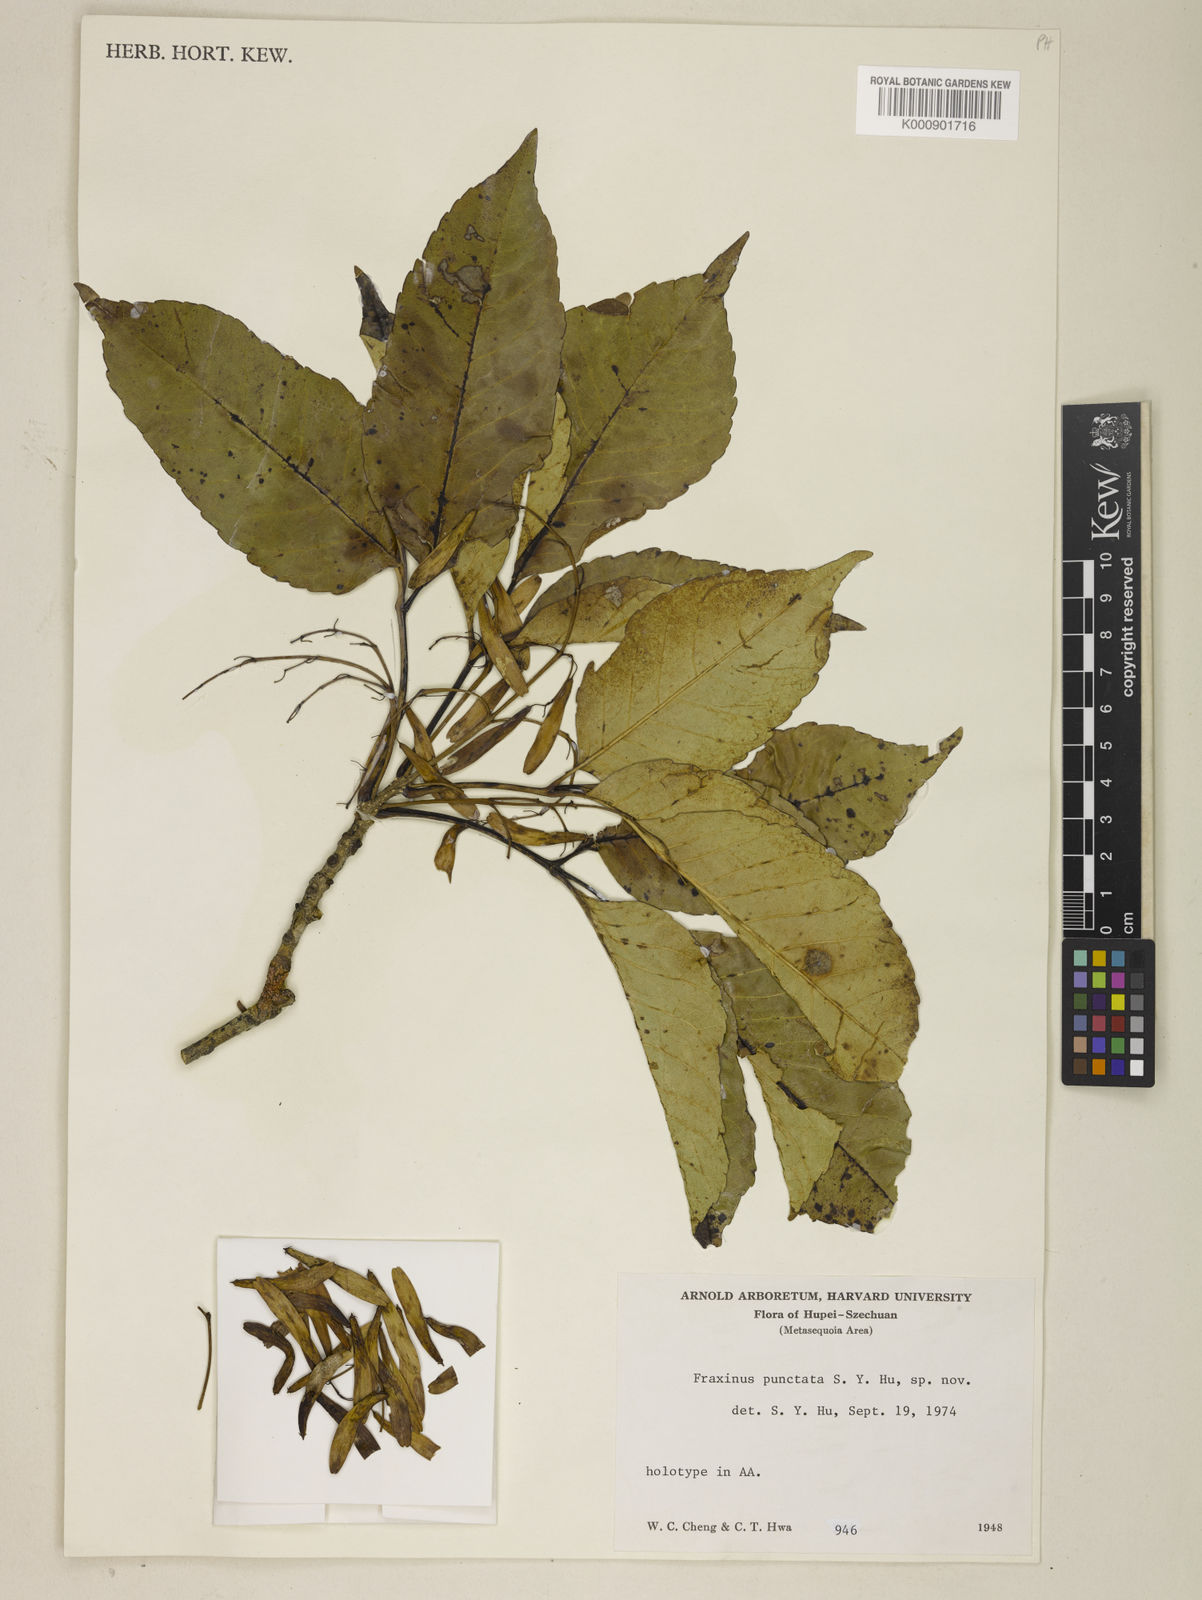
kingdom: Plantae
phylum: Tracheophyta
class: Magnoliopsida
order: Lamiales
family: Oleaceae
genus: Fraxinus
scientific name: Fraxinus trifoliolata
